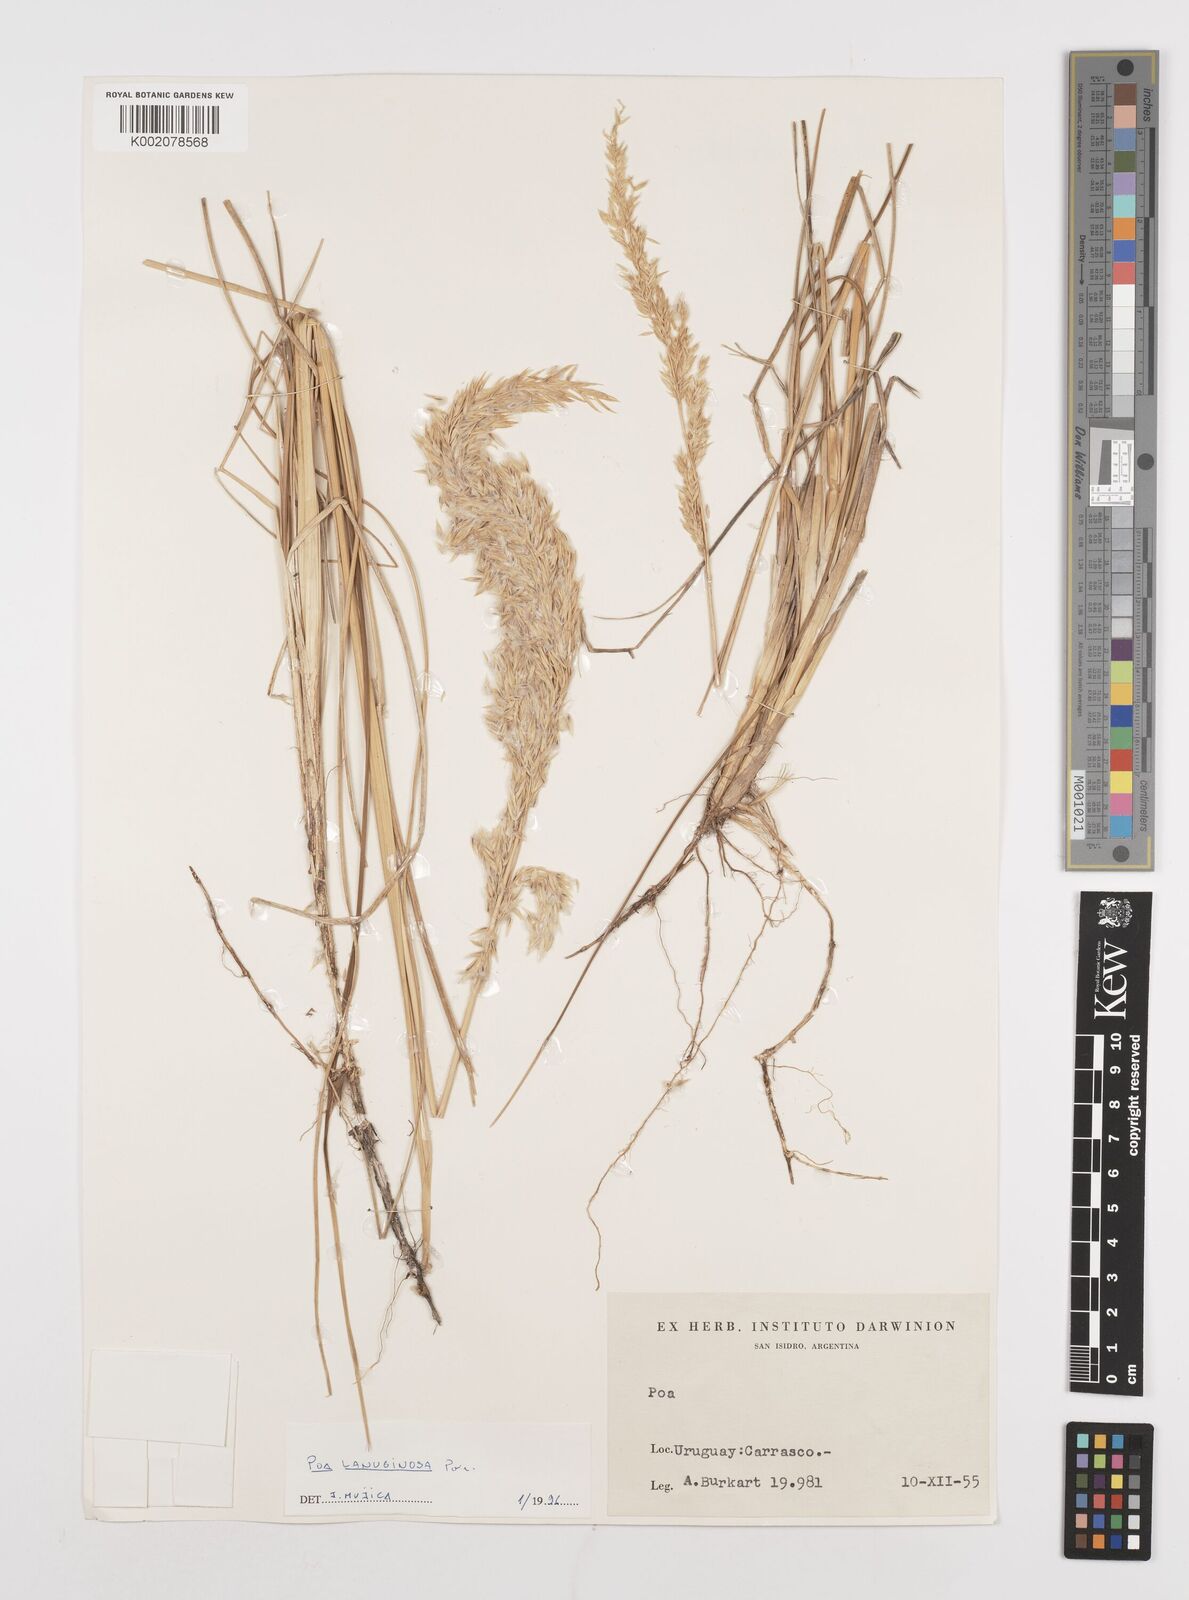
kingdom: Plantae
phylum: Tracheophyta
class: Liliopsida
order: Poales
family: Poaceae
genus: Poa
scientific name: Poa lanuginosa
